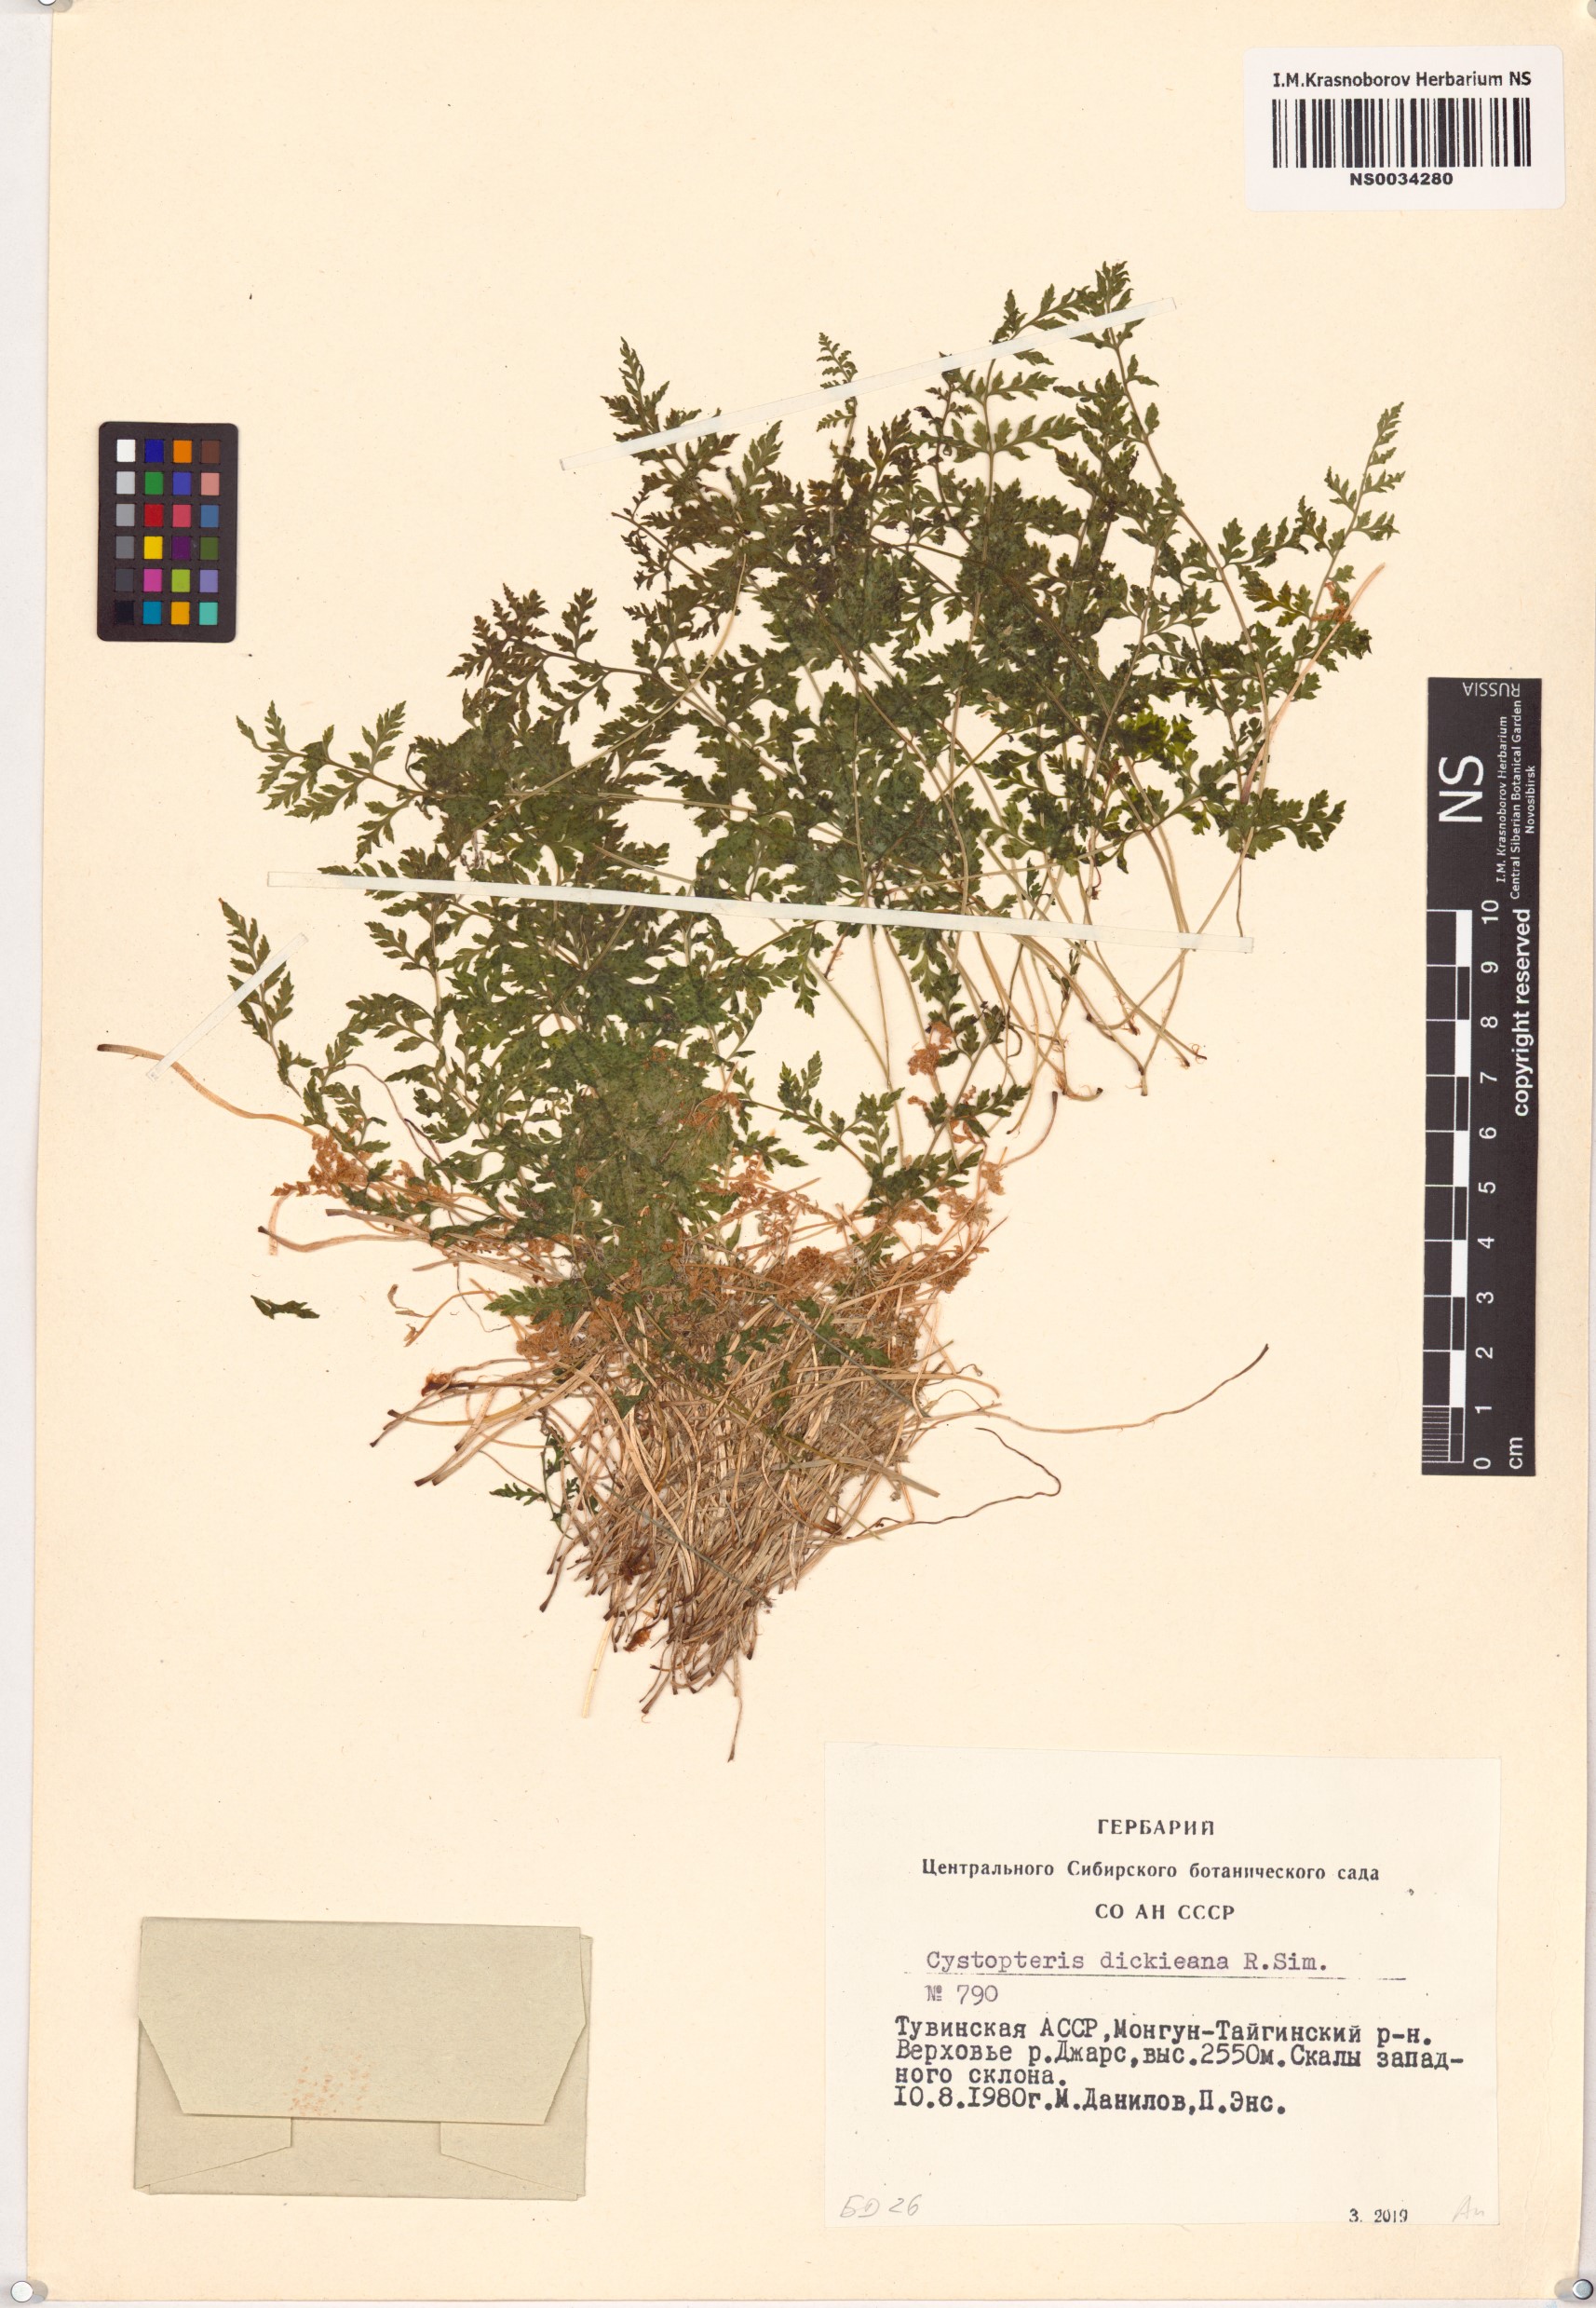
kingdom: Plantae
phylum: Tracheophyta
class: Polypodiopsida
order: Polypodiales
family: Cystopteridaceae
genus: Cystopteris
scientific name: Cystopteris dickieana
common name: Dickie's bladder-fern
